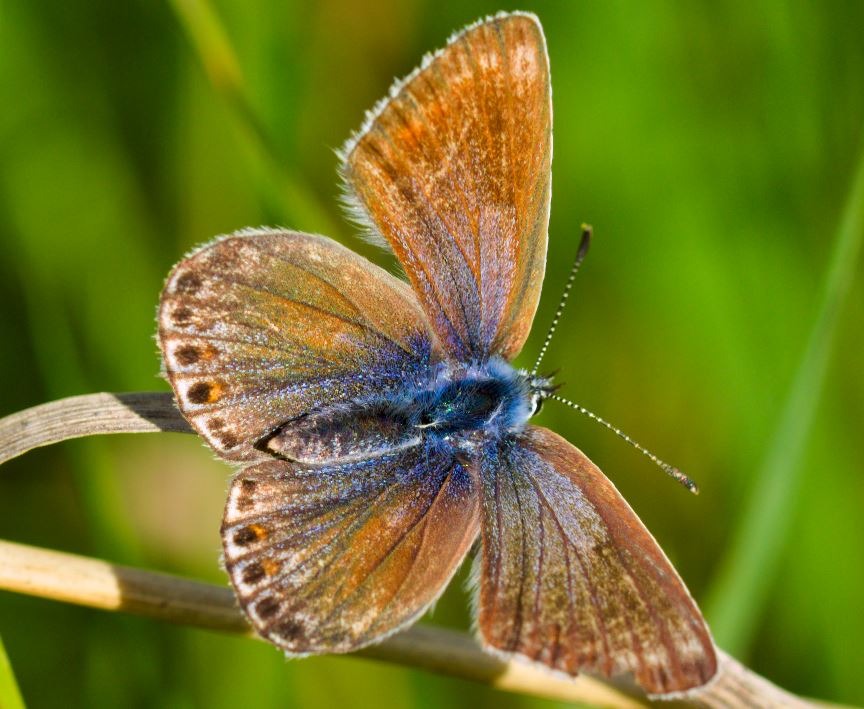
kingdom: Animalia
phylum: Arthropoda
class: Insecta
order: Lepidoptera
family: Lycaenidae
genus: Polyommatus
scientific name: Polyommatus icarus
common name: Almindelig blåfugl
